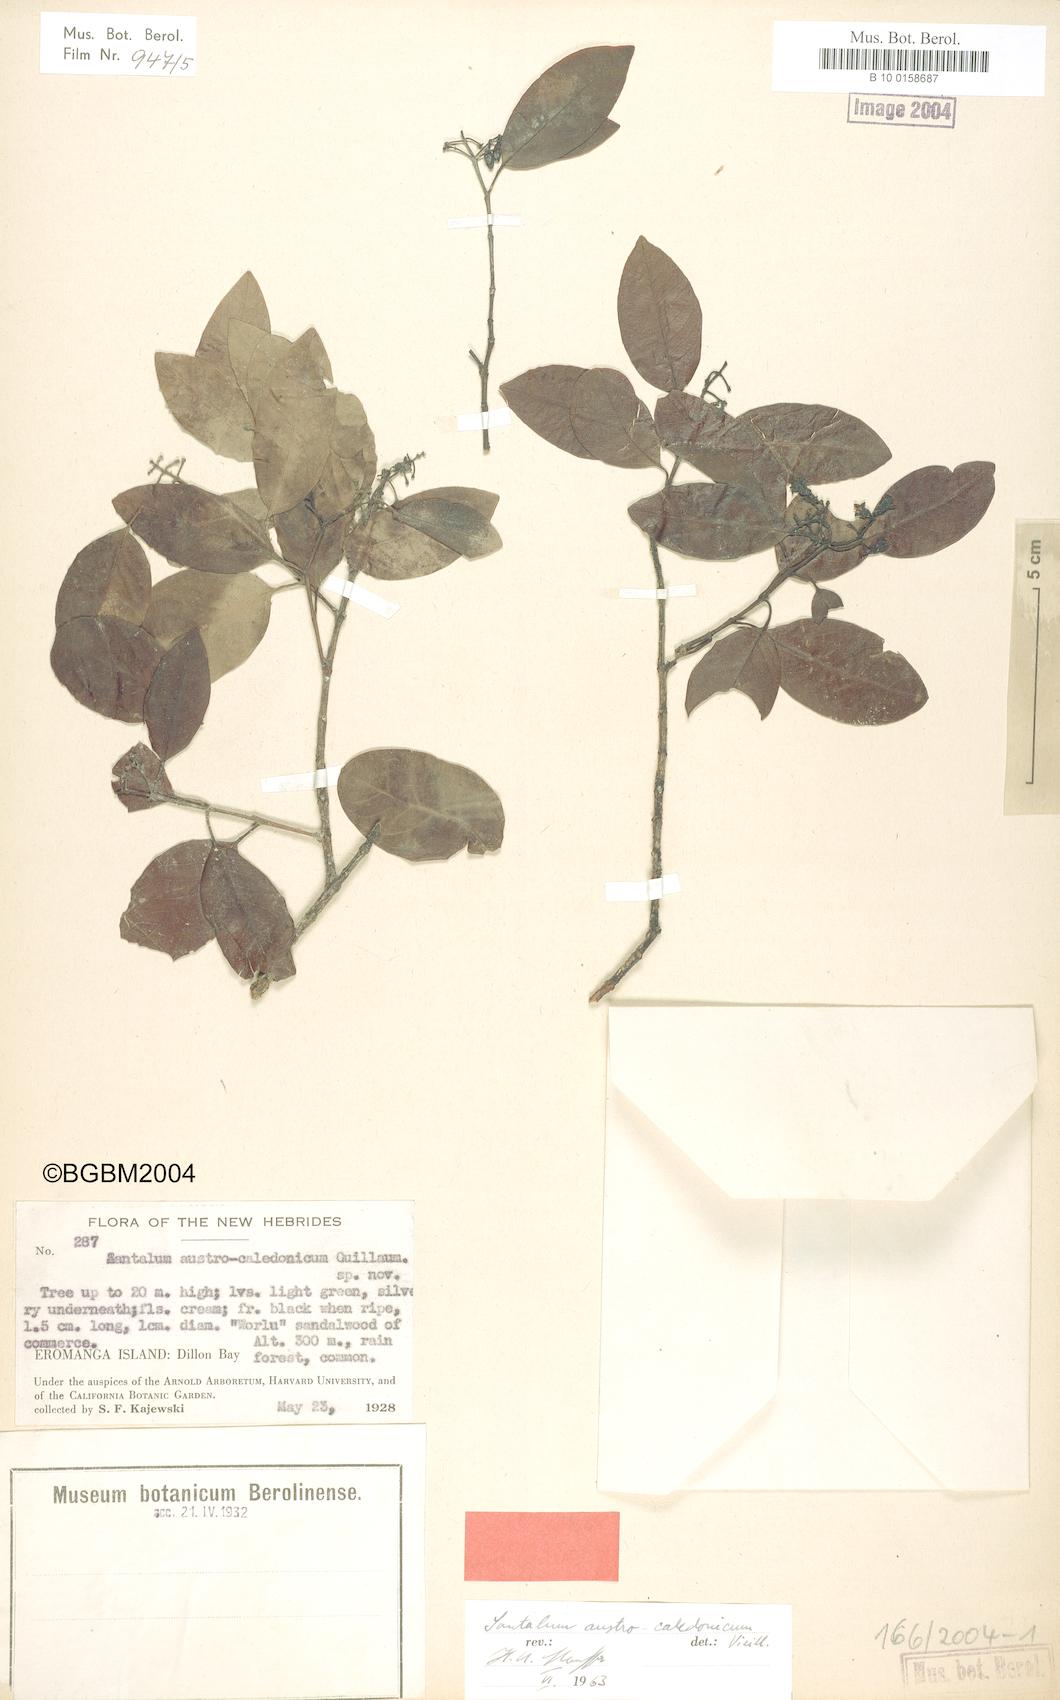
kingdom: Plantae
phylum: Tracheophyta
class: Magnoliopsida
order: Santalales
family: Santalaceae
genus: Santalum
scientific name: Santalum austrocaledonicum
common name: Coral sea sandalwood
